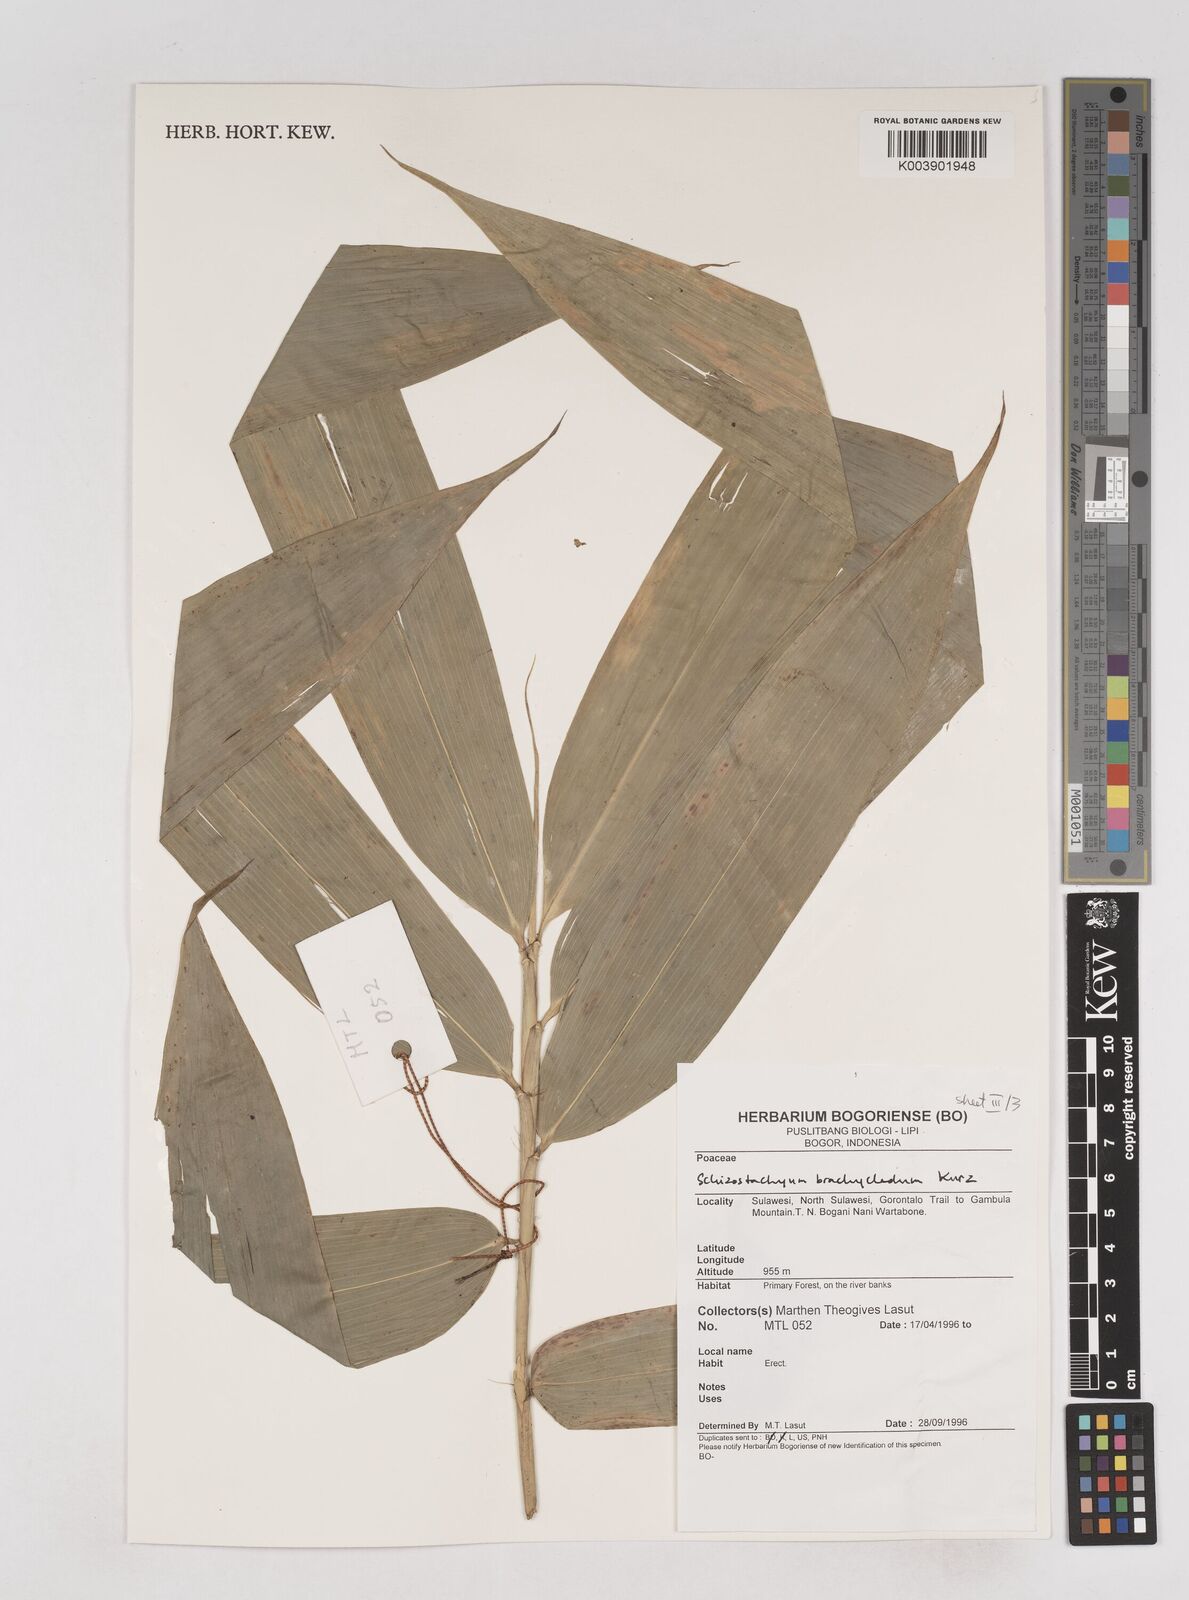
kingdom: Plantae
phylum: Tracheophyta
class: Liliopsida
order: Poales
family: Poaceae
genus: Schizostachyum
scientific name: Schizostachyum brachycladum
